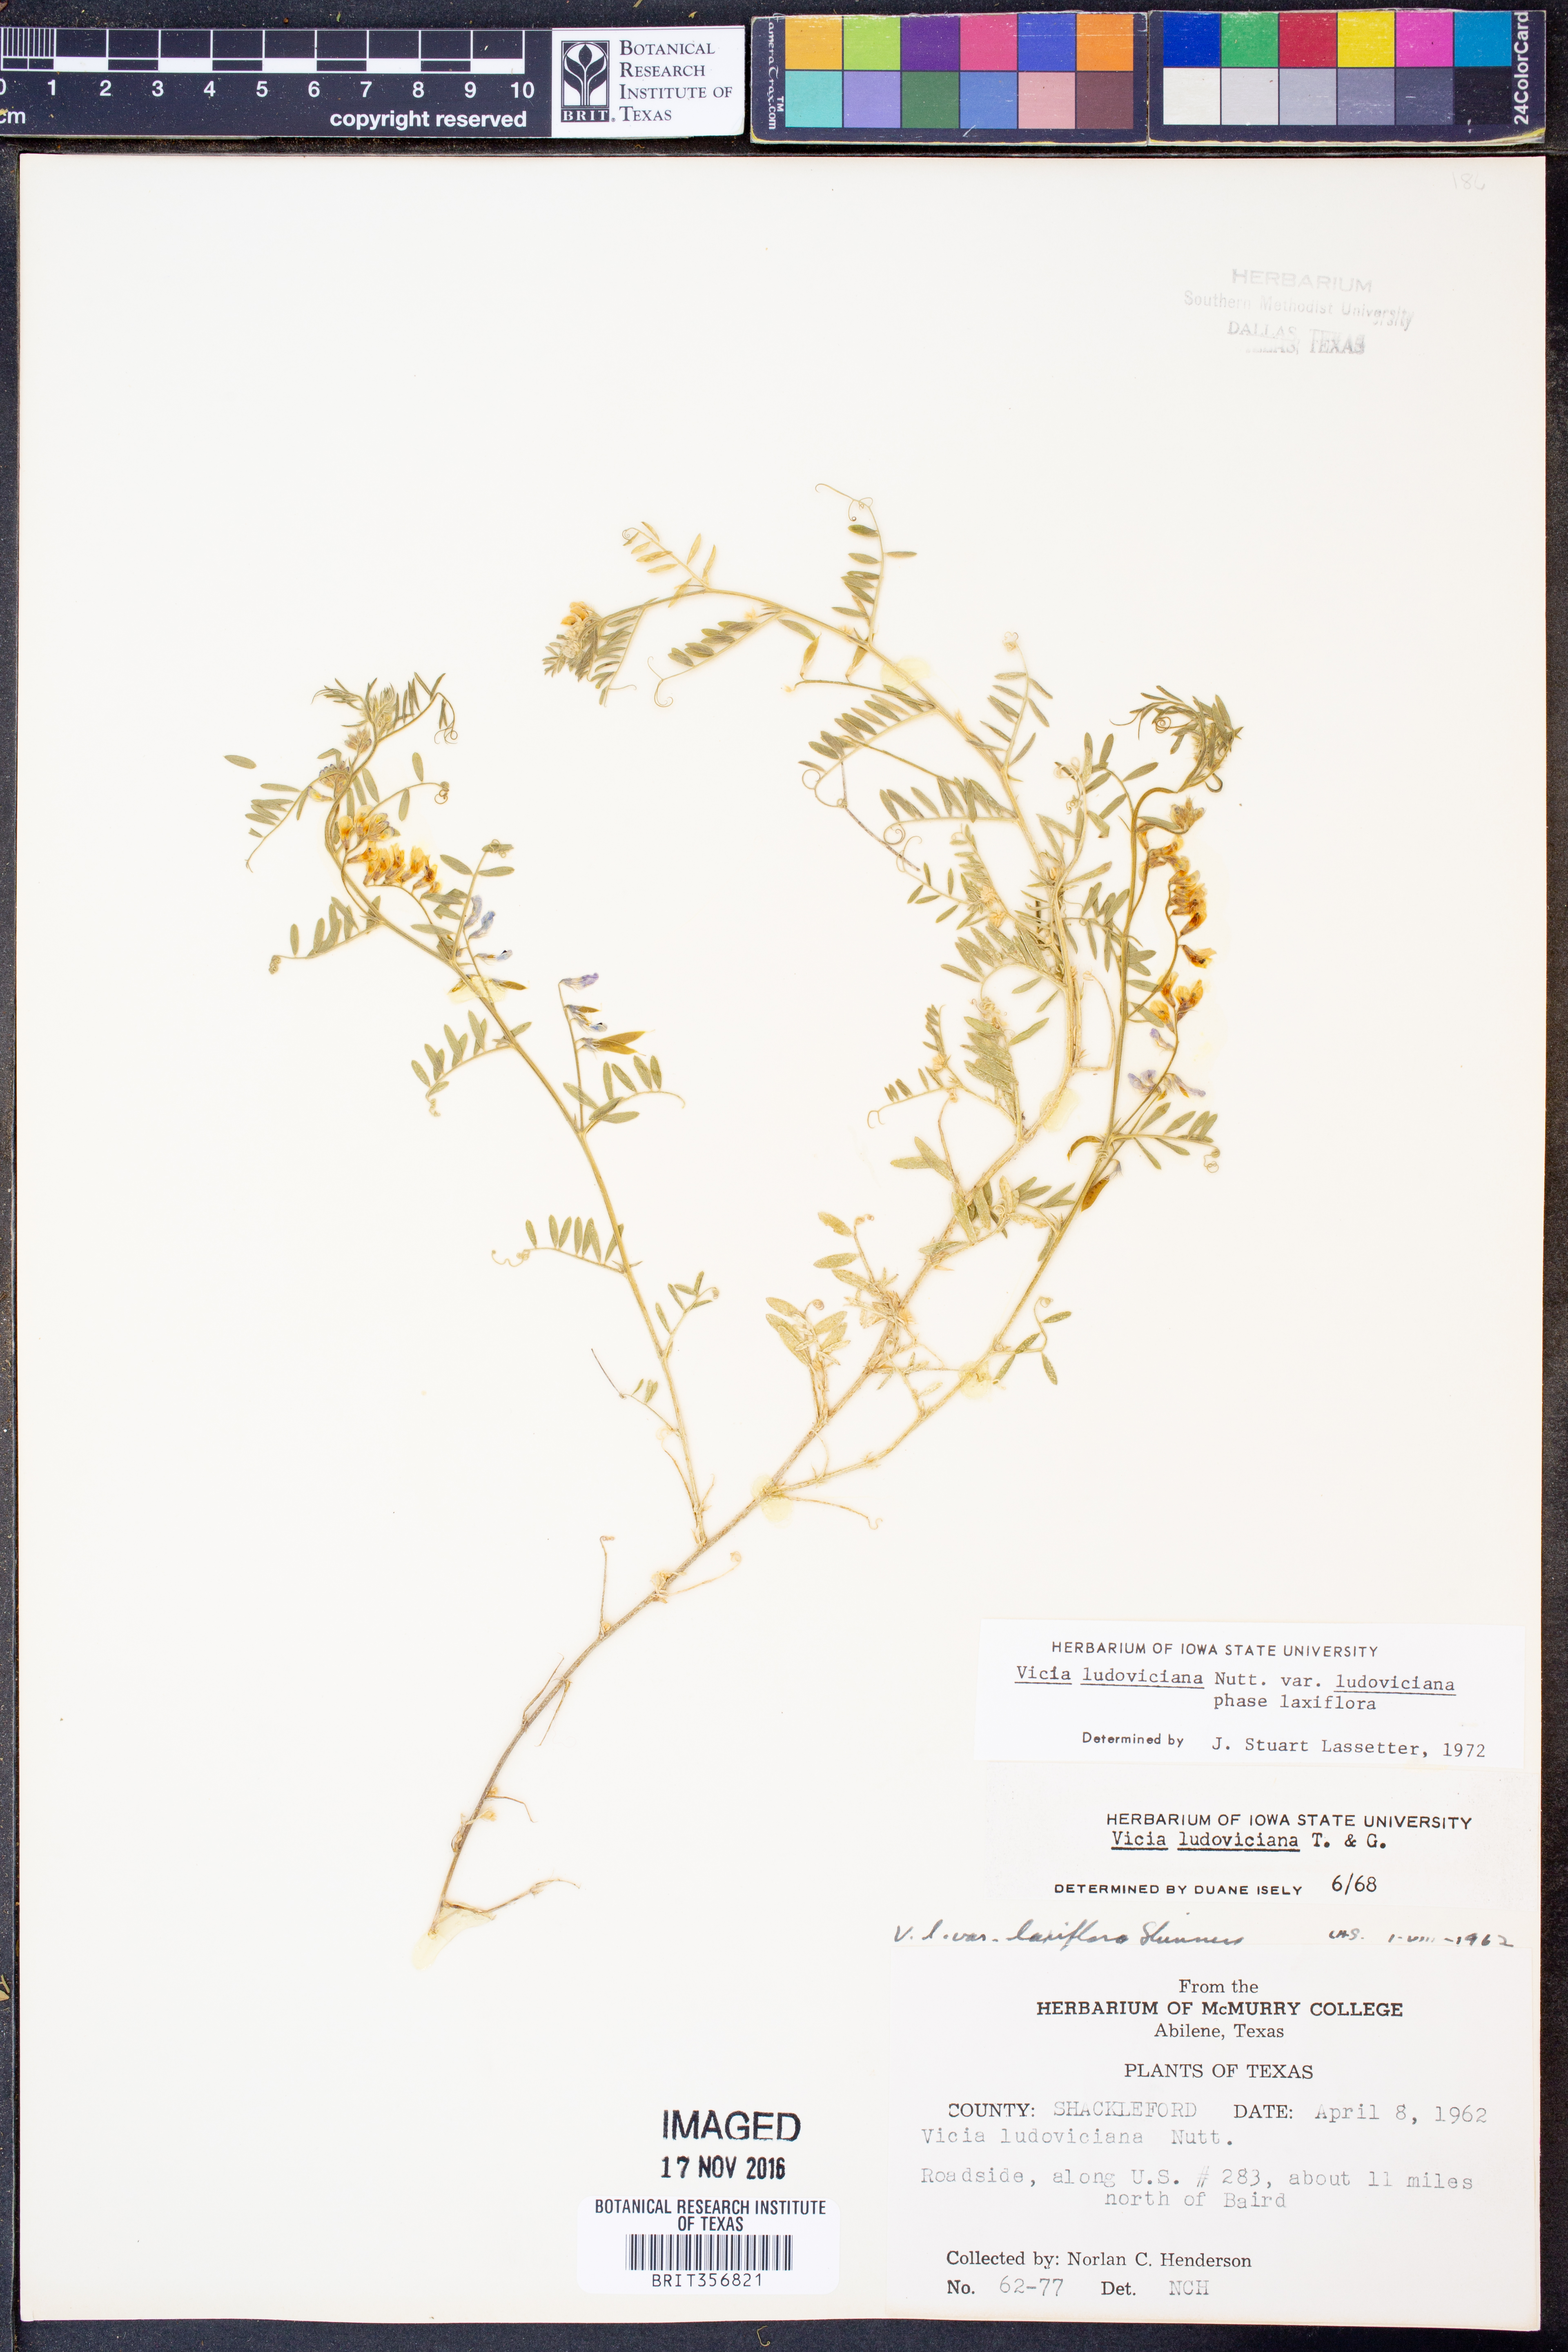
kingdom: Plantae
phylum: Tracheophyta
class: Magnoliopsida
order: Fabales
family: Fabaceae
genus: Vicia
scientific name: Vicia ludoviciana
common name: Louisiana vetch
